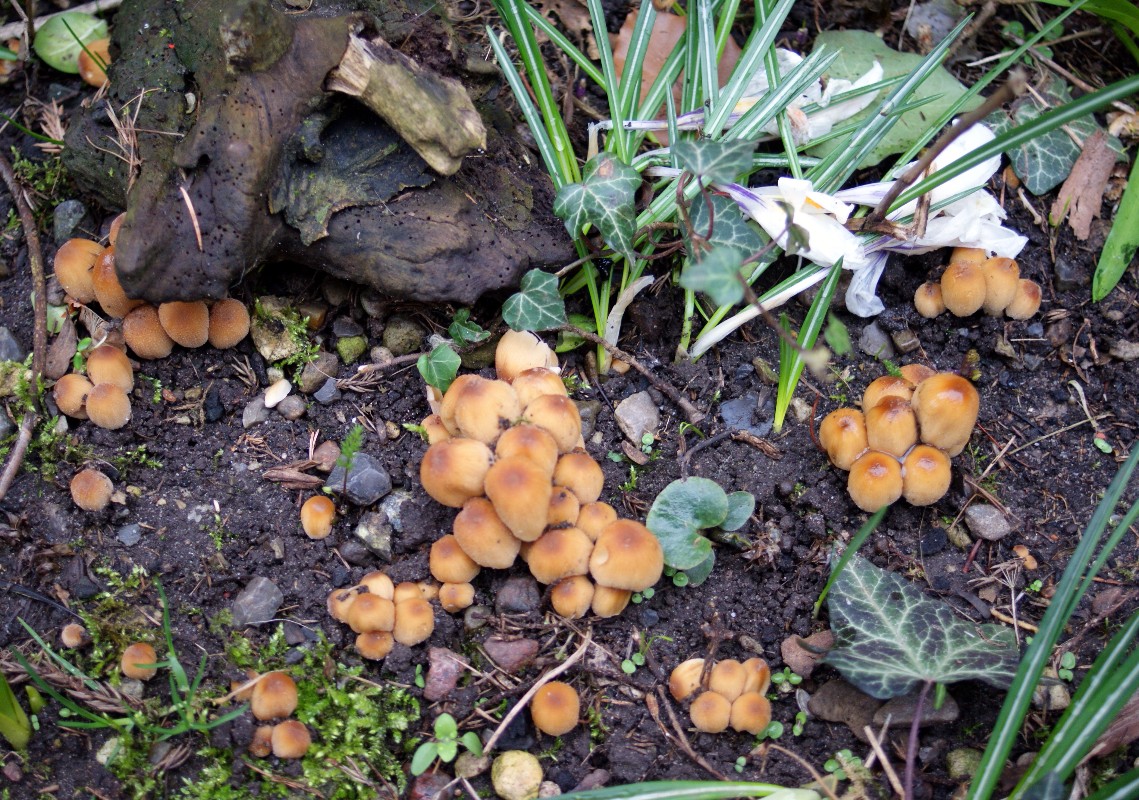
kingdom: Fungi
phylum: Basidiomycota
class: Agaricomycetes
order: Agaricales
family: Psathyrellaceae
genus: Coprinellus
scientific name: Coprinellus micaceus
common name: glimmer-blækhat
